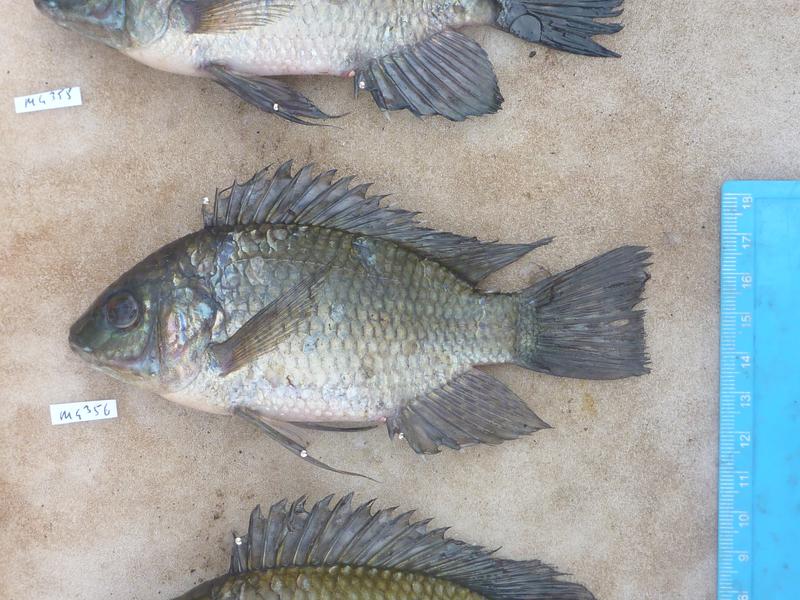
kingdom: Animalia
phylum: Chordata
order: Perciformes
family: Cichlidae
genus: Oreochromis
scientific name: Oreochromis leucostictus
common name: Blue spotted tilapia
